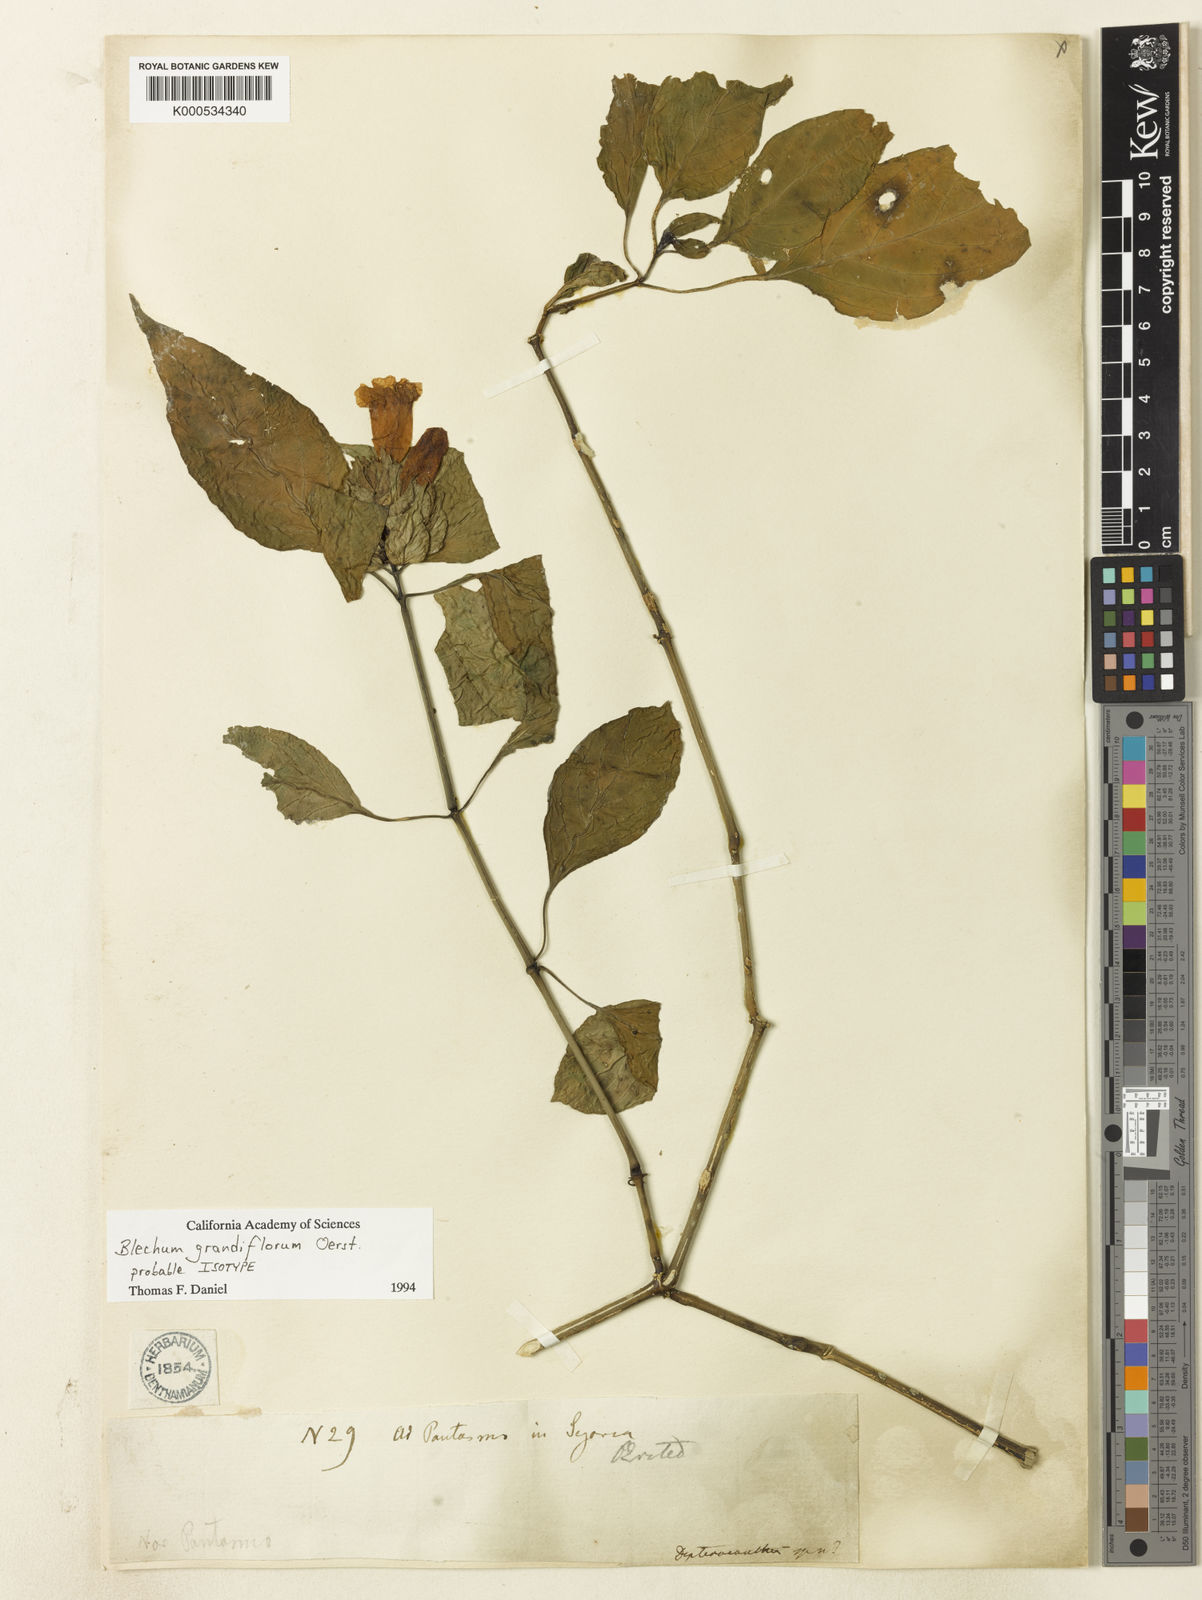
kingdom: Plantae
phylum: Tracheophyta
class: Polypodiopsida
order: Polypodiales
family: Blechnaceae
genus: Blechnum
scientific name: Blechnum
